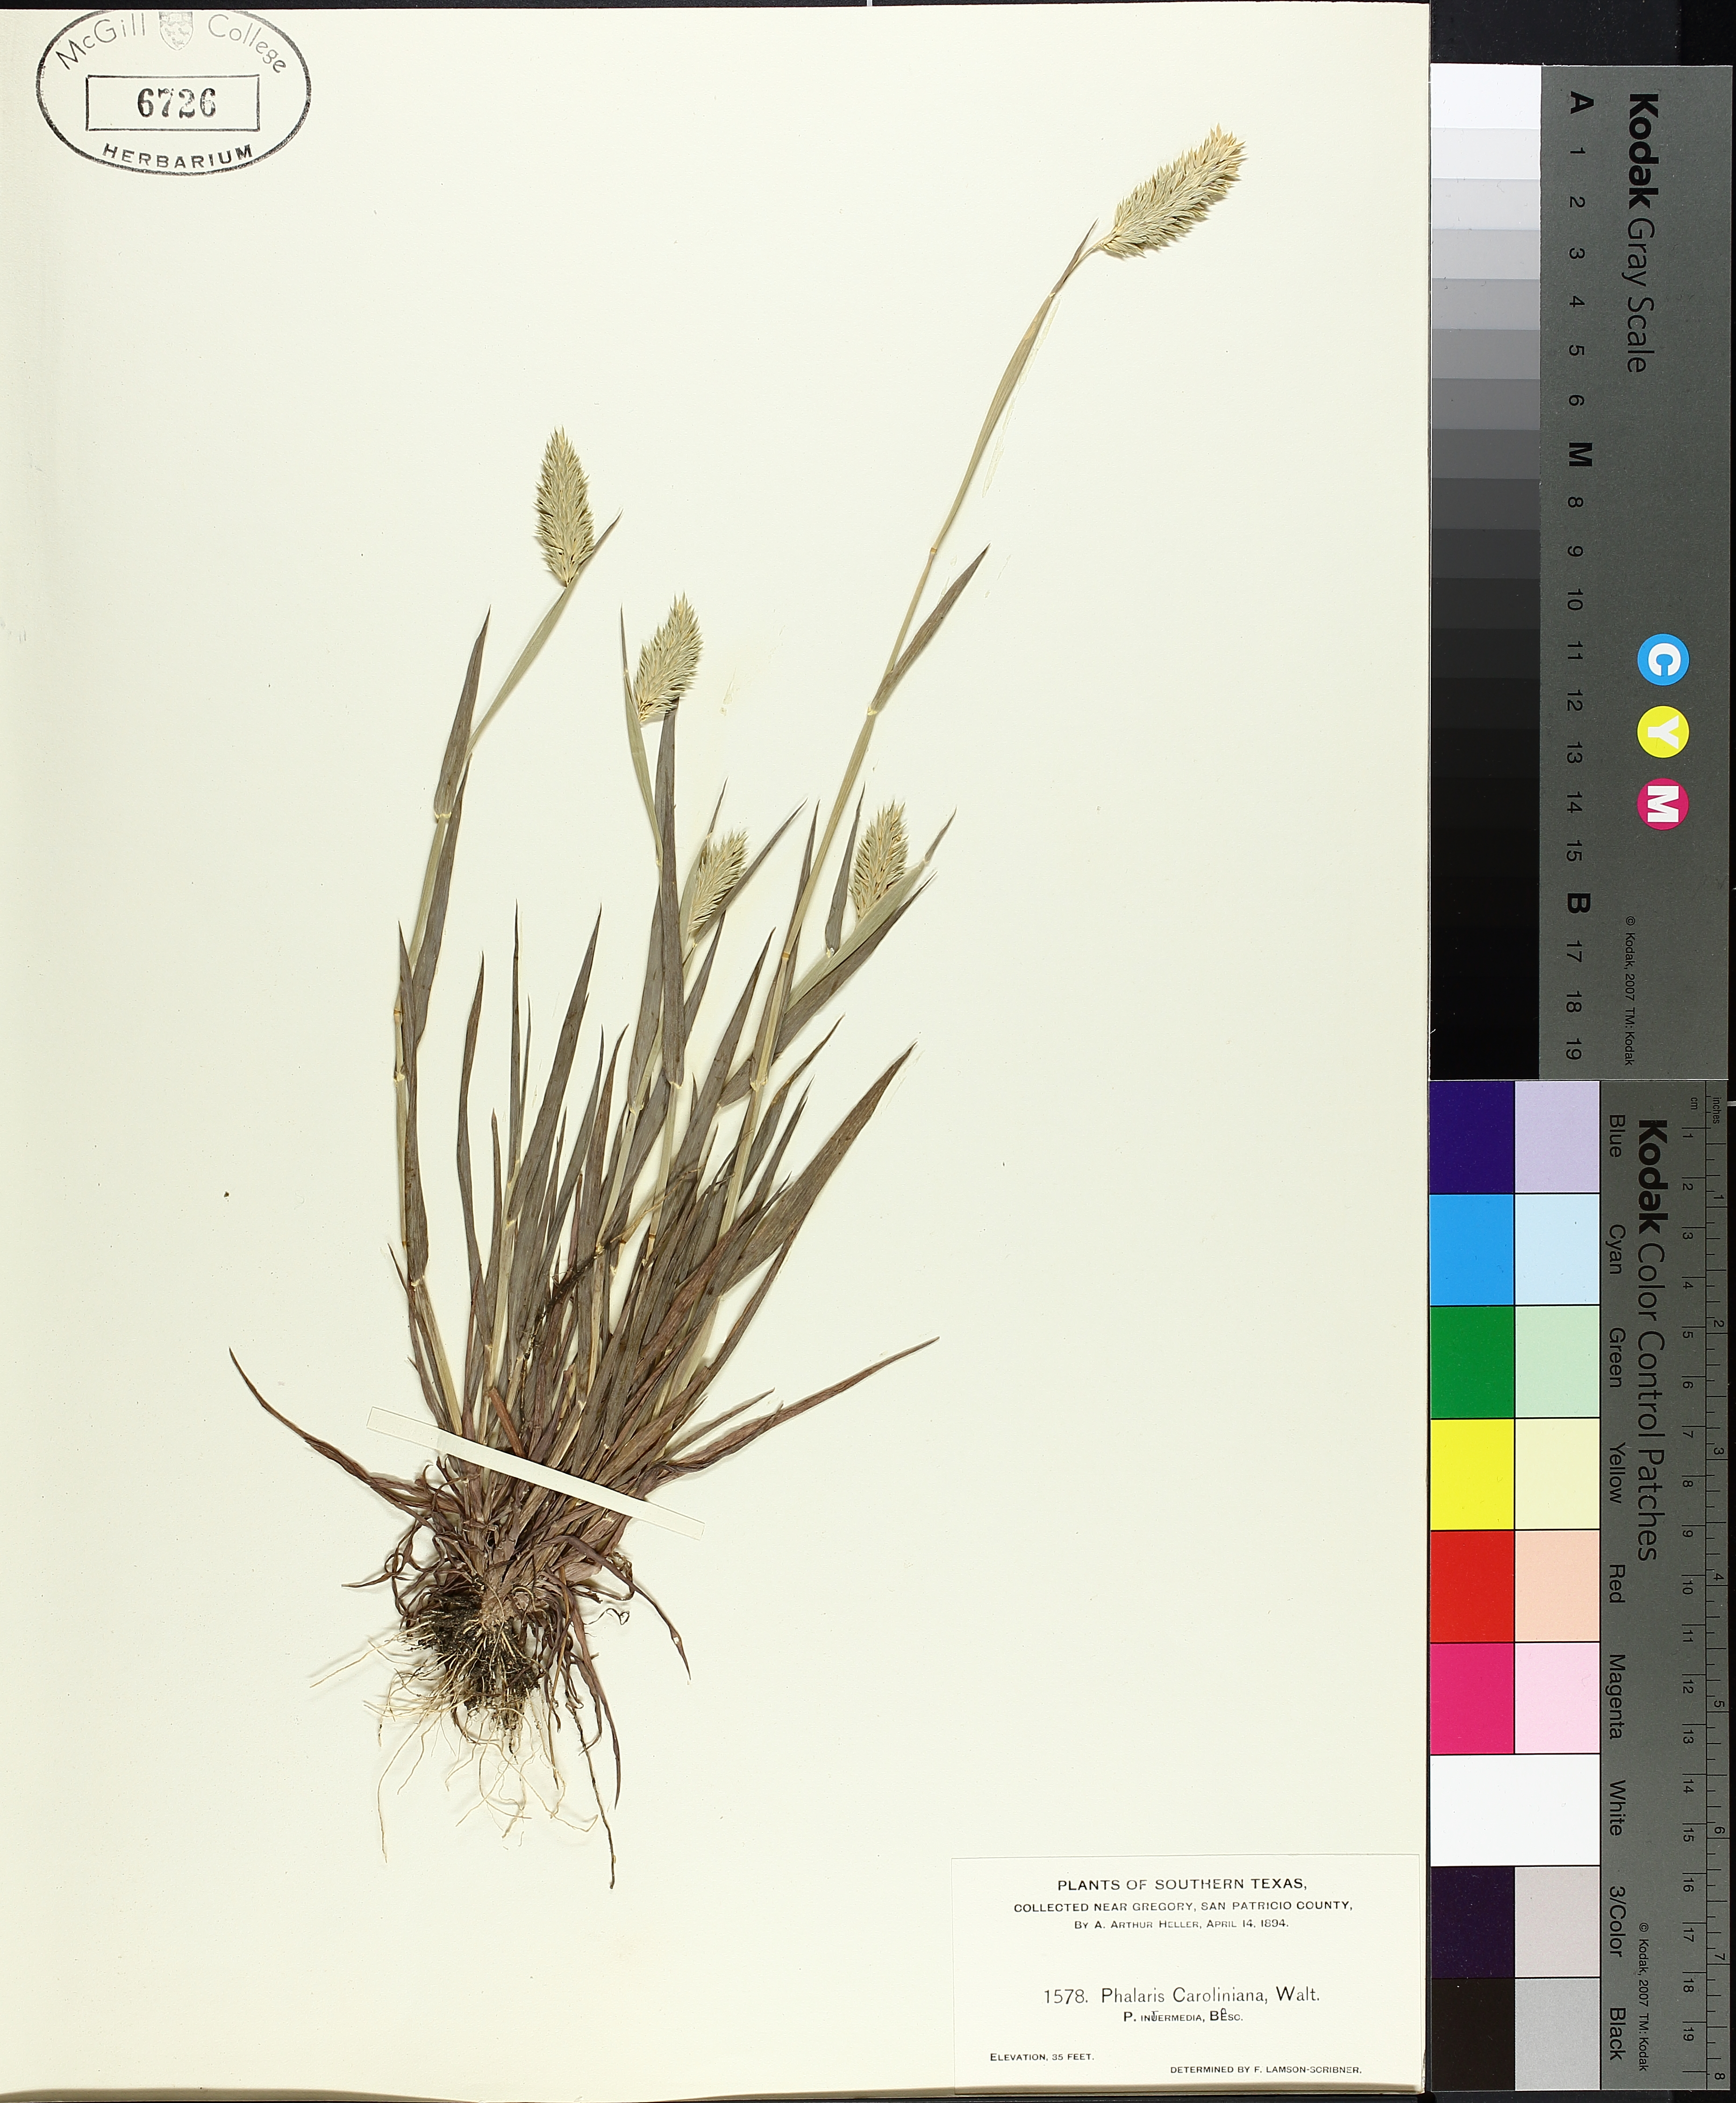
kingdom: Plantae
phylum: Tracheophyta
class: Magnoliopsida
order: Apiales
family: Apiaceae
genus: Cicuta
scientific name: Cicuta bulbifera
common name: Bulb-bearing water-hemlock
